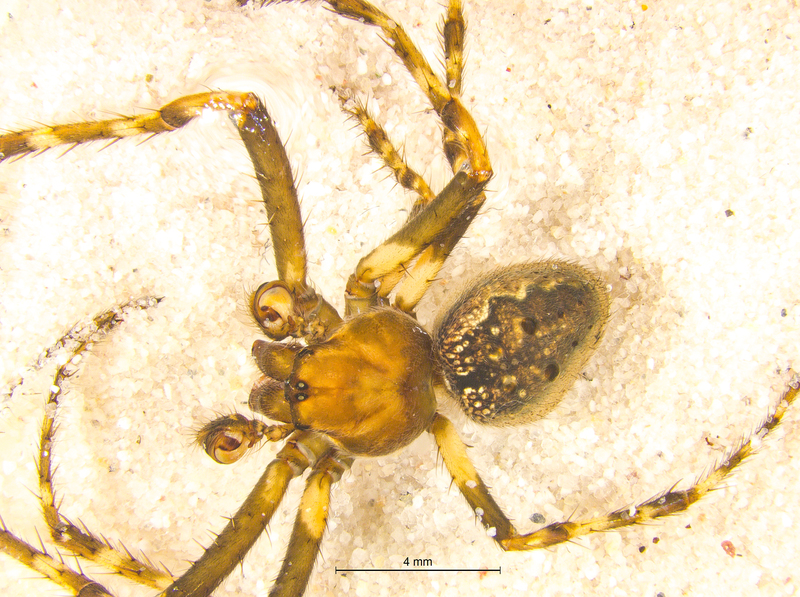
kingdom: Animalia
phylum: Arthropoda
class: Arachnida
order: Araneae
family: Araneidae
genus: Nuctenea
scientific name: Nuctenea umbratica
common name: Toad spider
